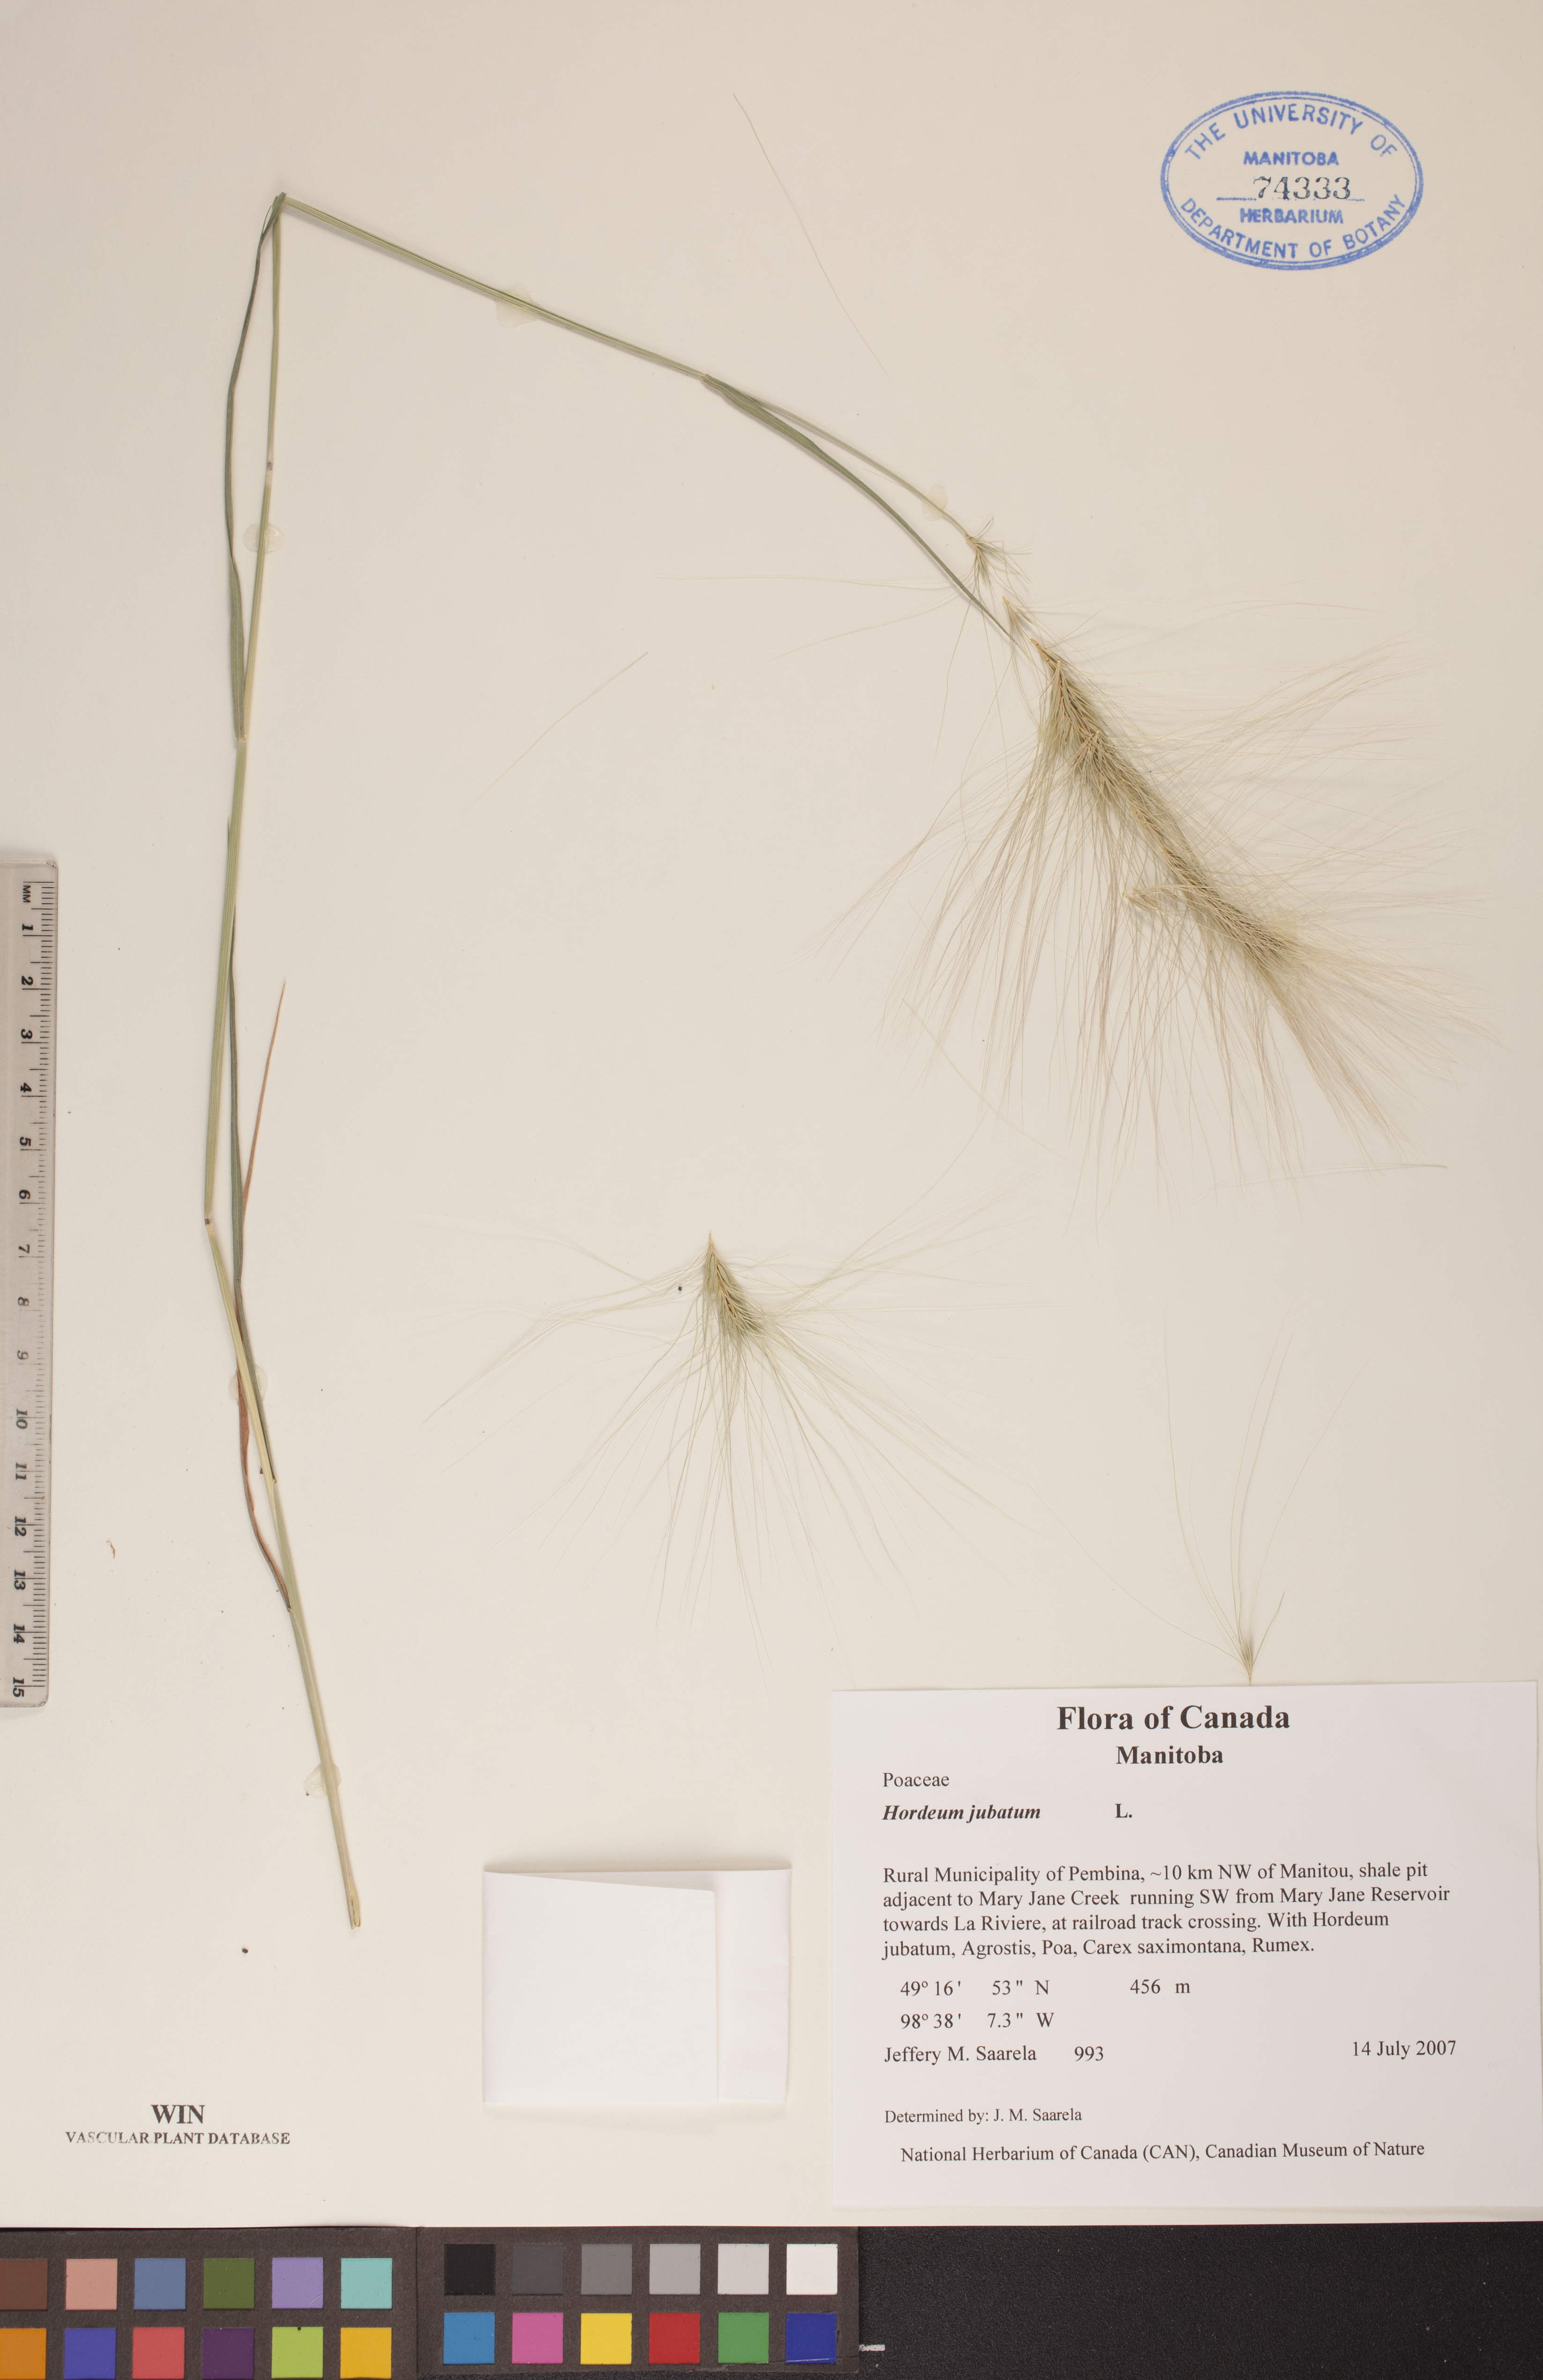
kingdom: Plantae
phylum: Tracheophyta
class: Liliopsida
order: Poales
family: Poaceae
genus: Hordeum
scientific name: Hordeum jubatum
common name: Foxtail barley
